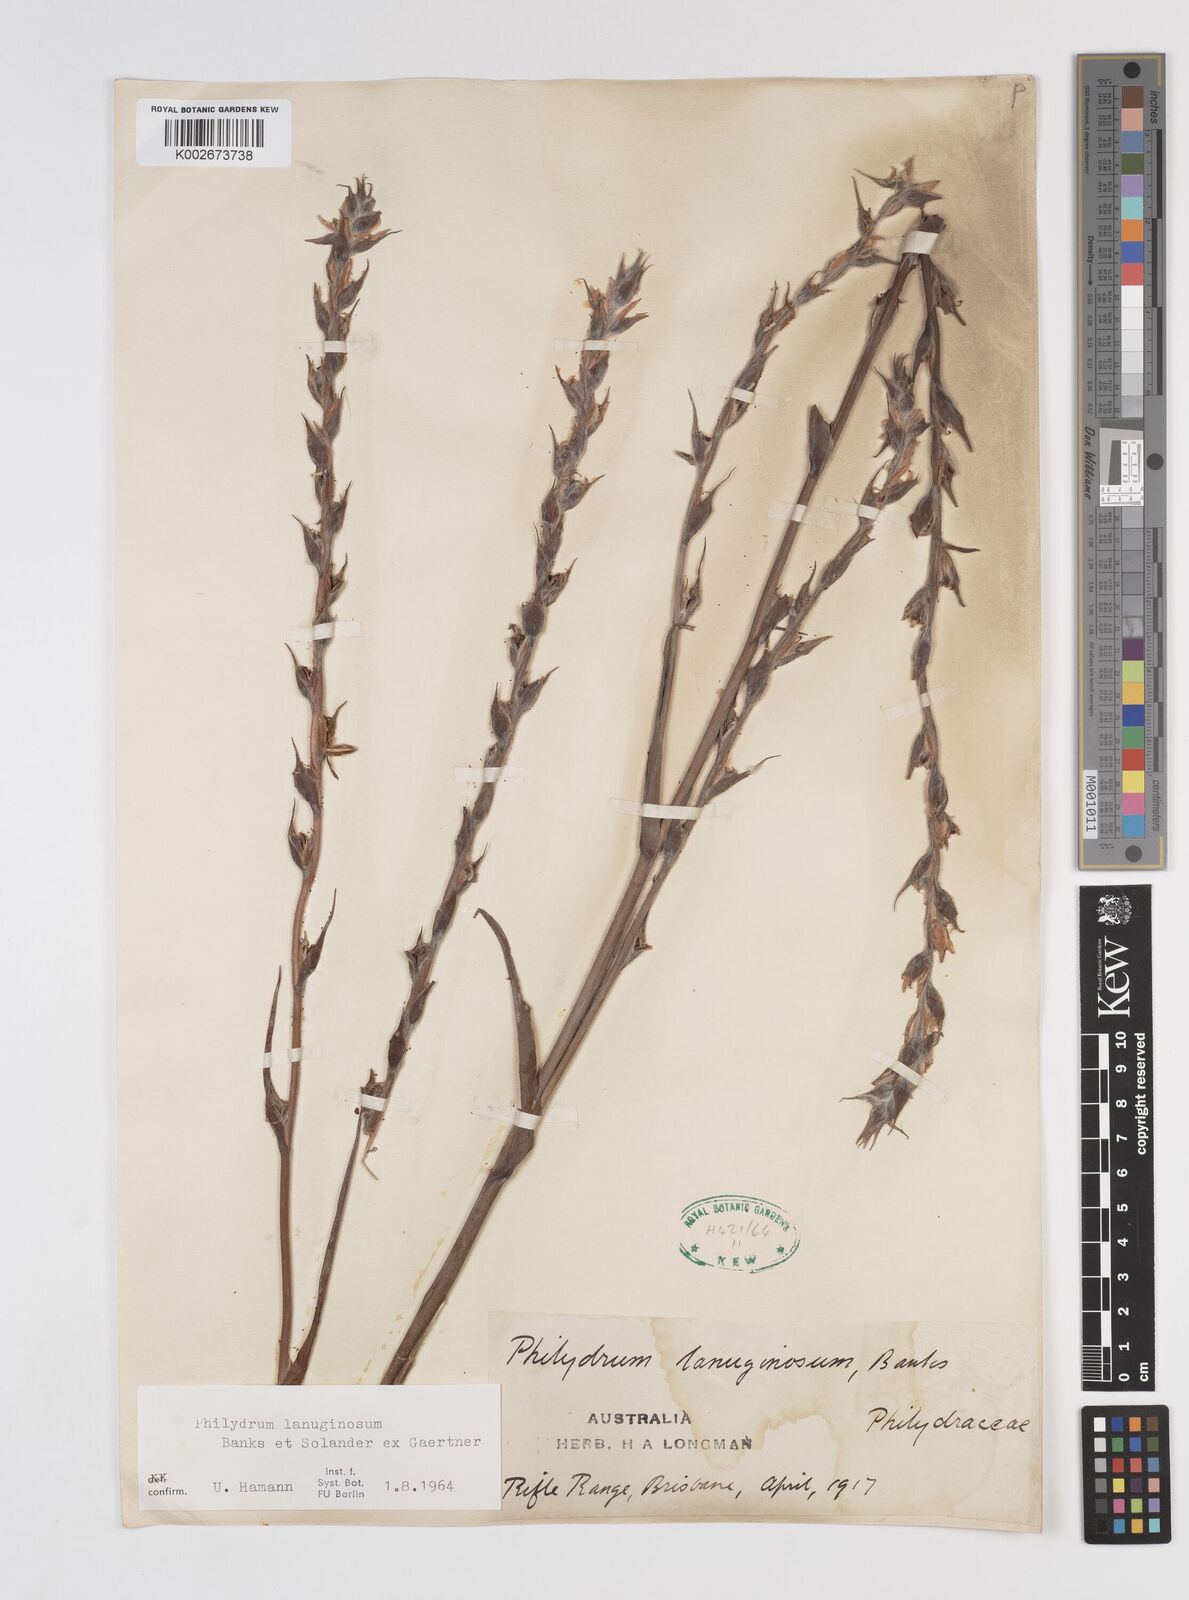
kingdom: Plantae
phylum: Tracheophyta
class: Liliopsida
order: Commelinales
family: Philydraceae
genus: Philydrum
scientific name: Philydrum lanuginosum
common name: Woolly frog's mouth
